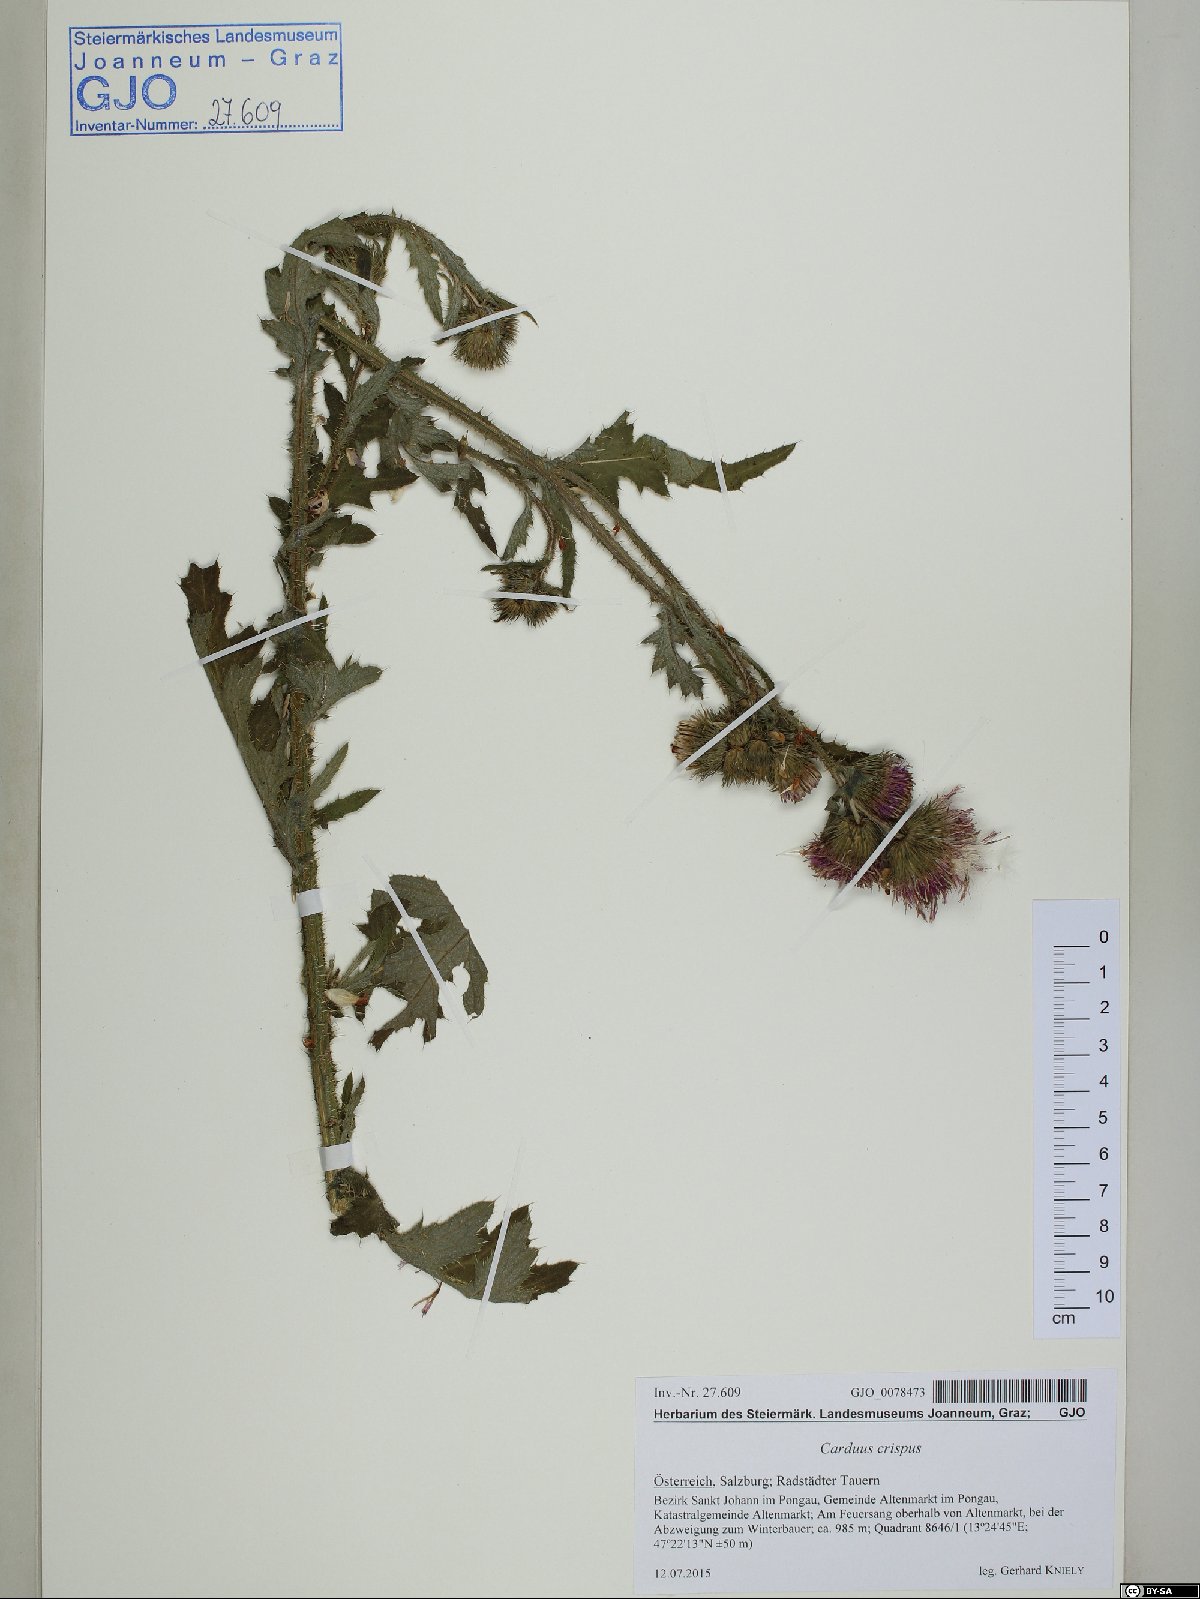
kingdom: Plantae
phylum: Tracheophyta
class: Magnoliopsida
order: Asterales
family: Asteraceae
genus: Carduus
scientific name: Carduus crispus
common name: Welted thistle
